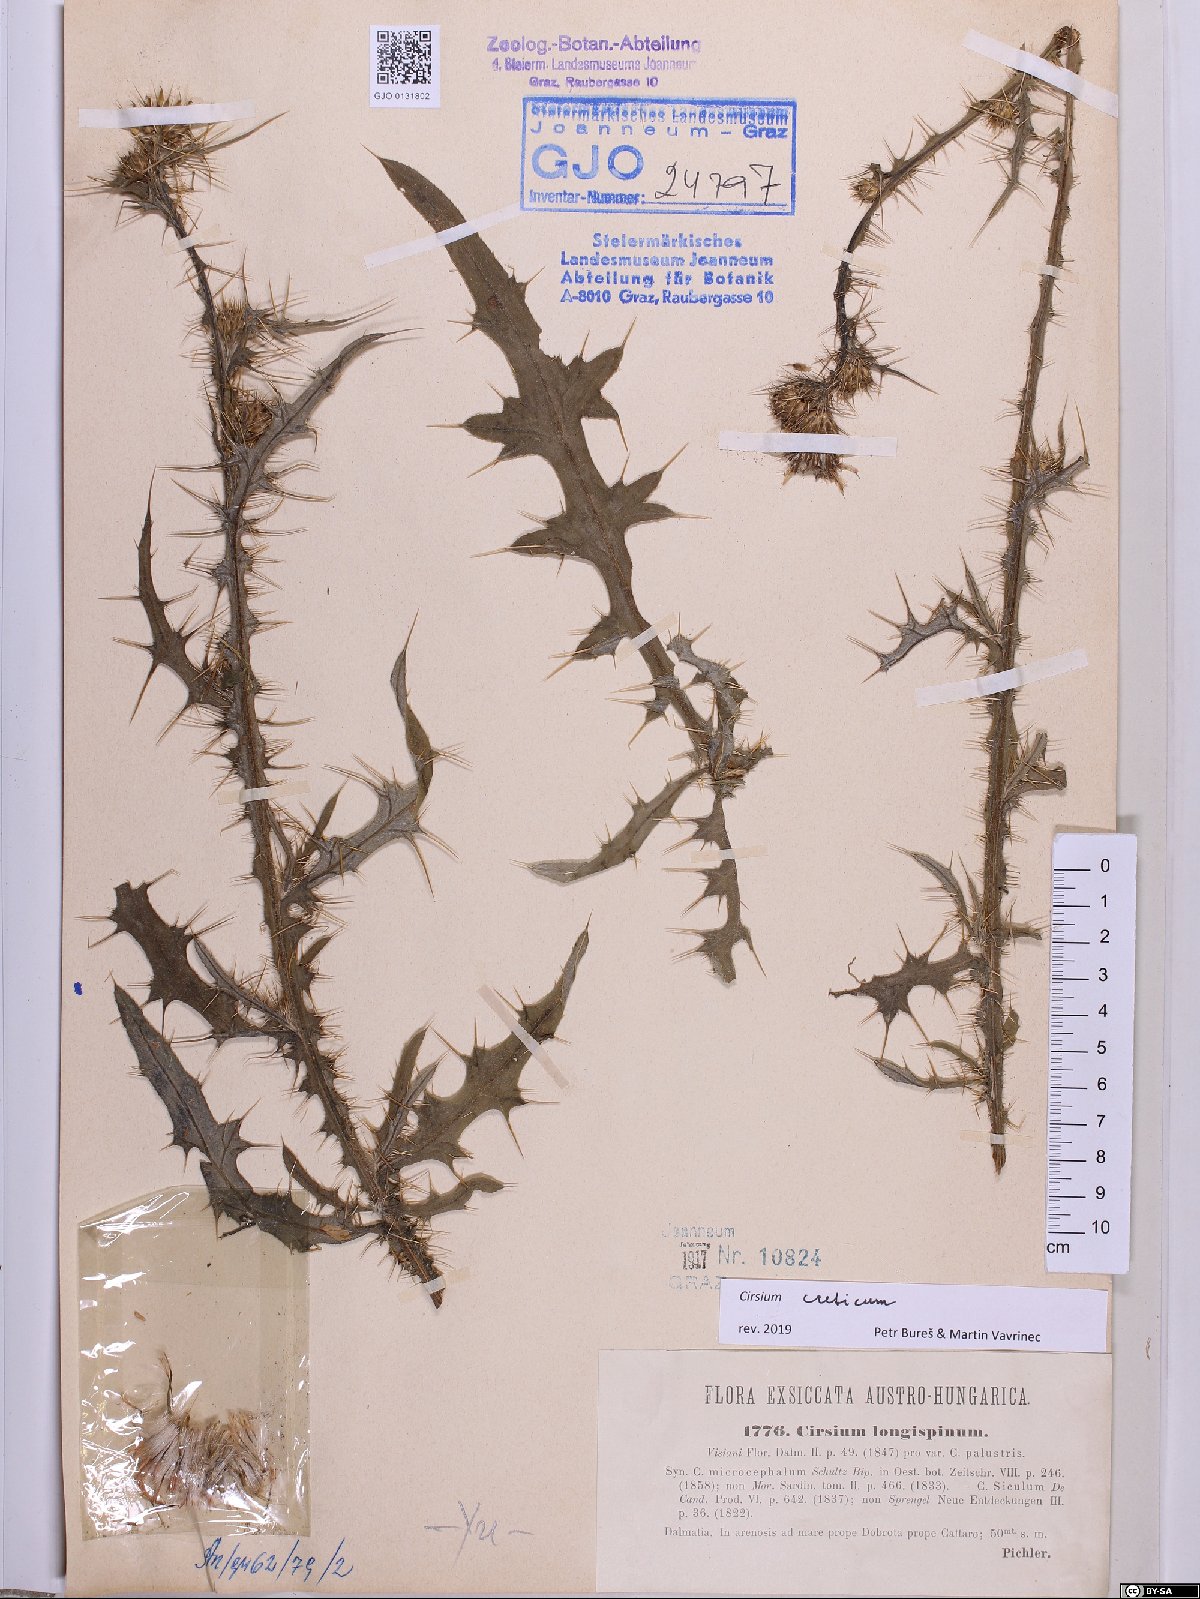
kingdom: Plantae
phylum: Tracheophyta
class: Magnoliopsida
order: Asterales
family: Asteraceae
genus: Cirsium
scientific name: Cirsium creticum
